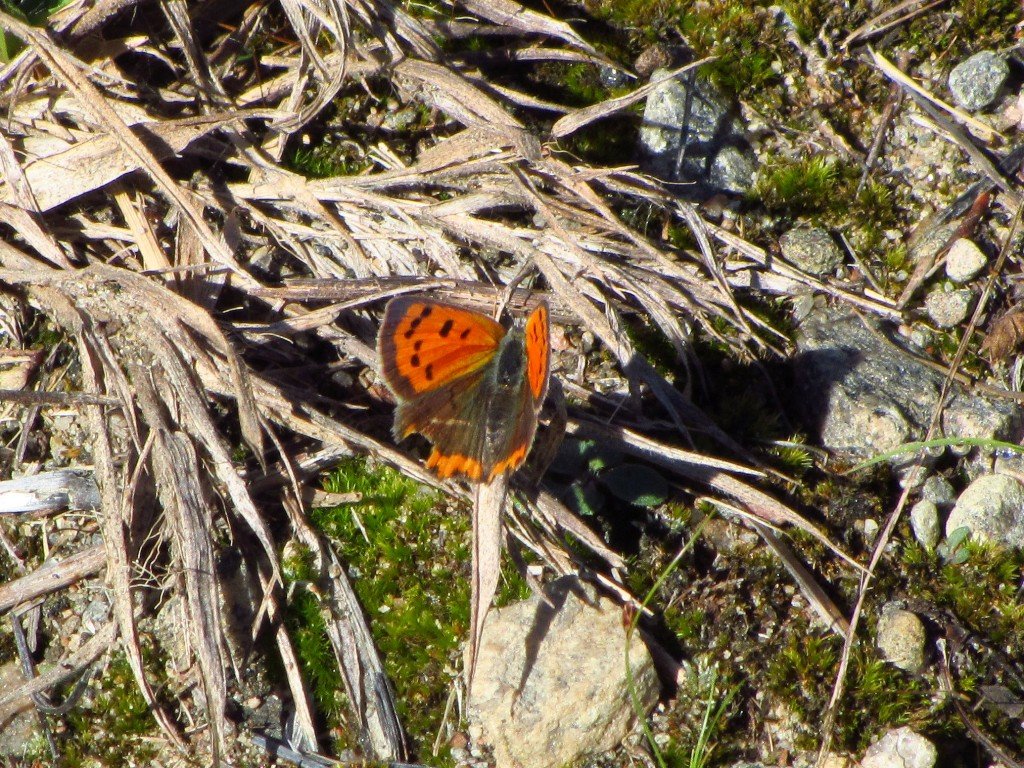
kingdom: Animalia
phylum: Arthropoda
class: Insecta
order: Lepidoptera
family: Lycaenidae
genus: Lycaena
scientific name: Lycaena phlaeas
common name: American Copper
